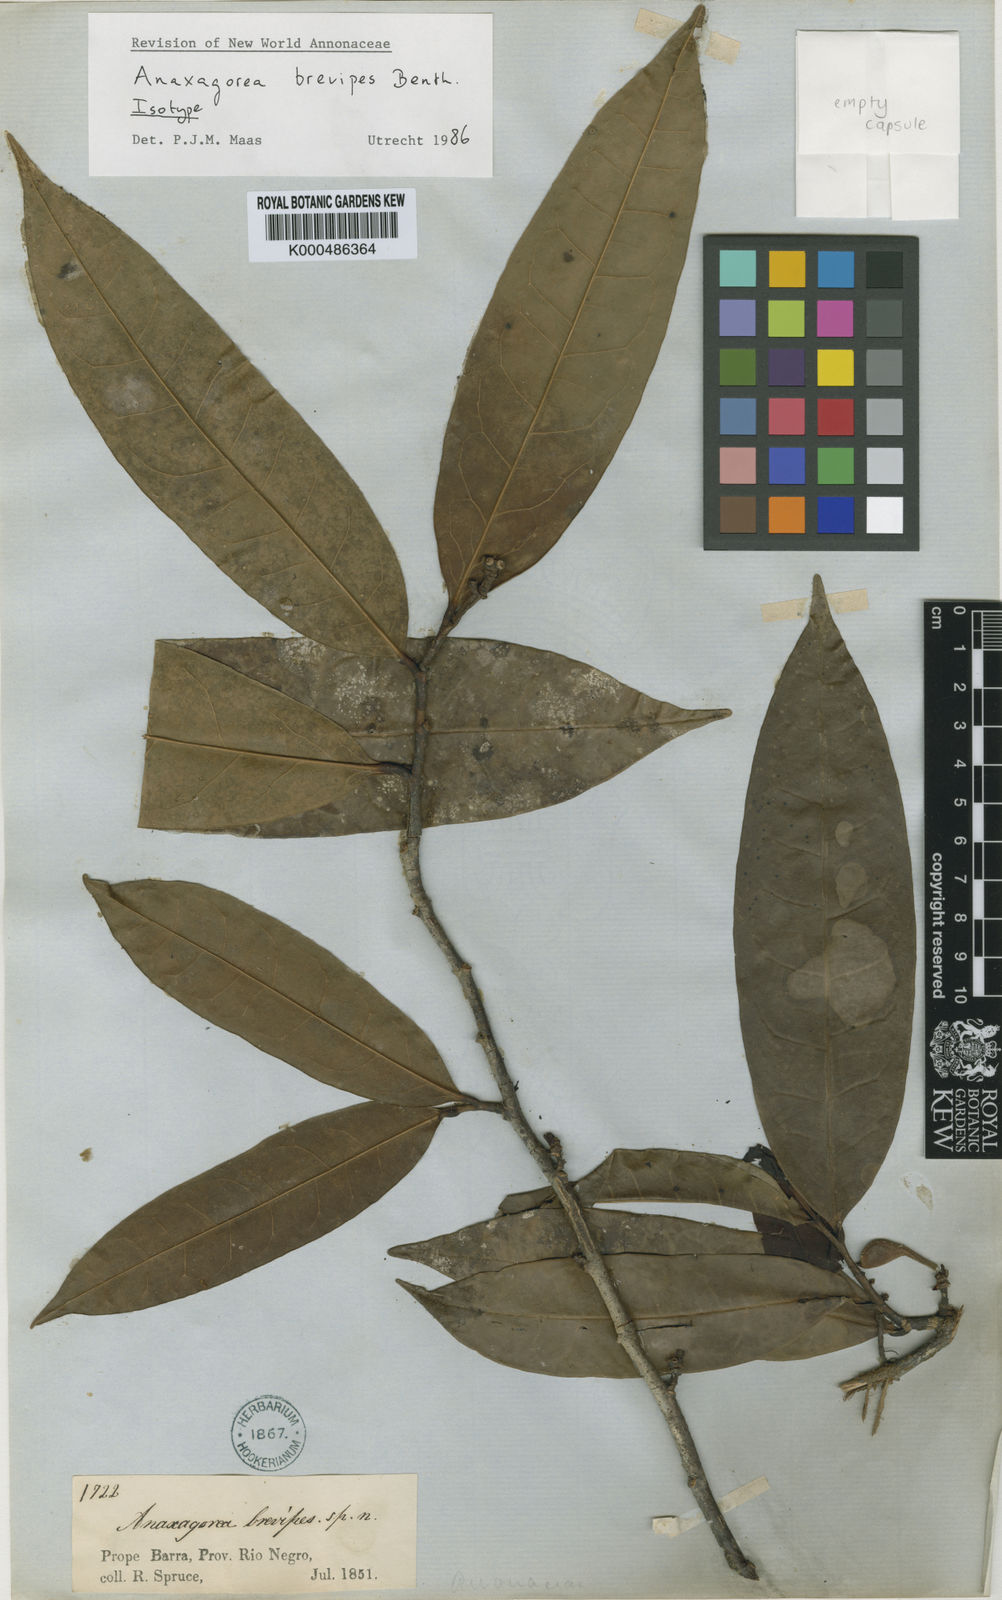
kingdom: Plantae
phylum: Tracheophyta
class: Magnoliopsida
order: Magnoliales
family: Annonaceae
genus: Anaxagorea
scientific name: Anaxagorea brevipes
